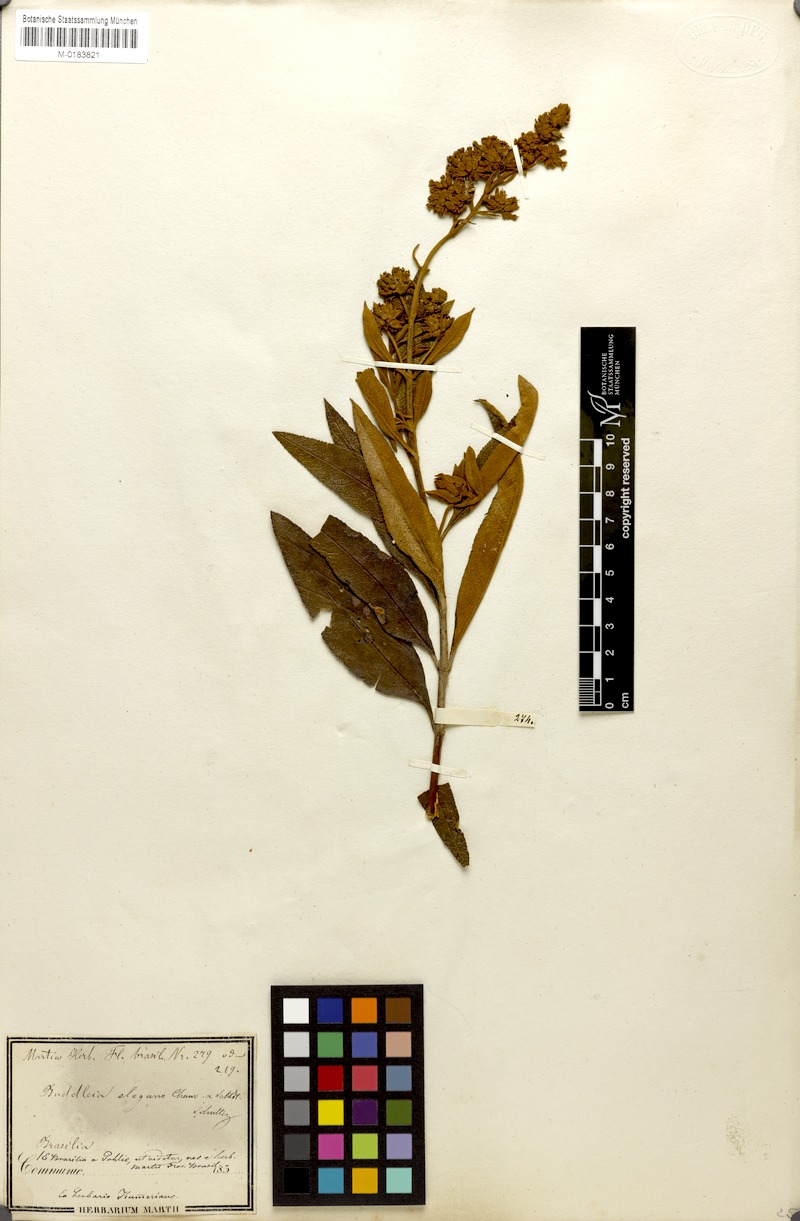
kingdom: Plantae
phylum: Tracheophyta
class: Magnoliopsida
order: Lamiales
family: Scrophulariaceae
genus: Buddleja
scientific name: Buddleja elegans
